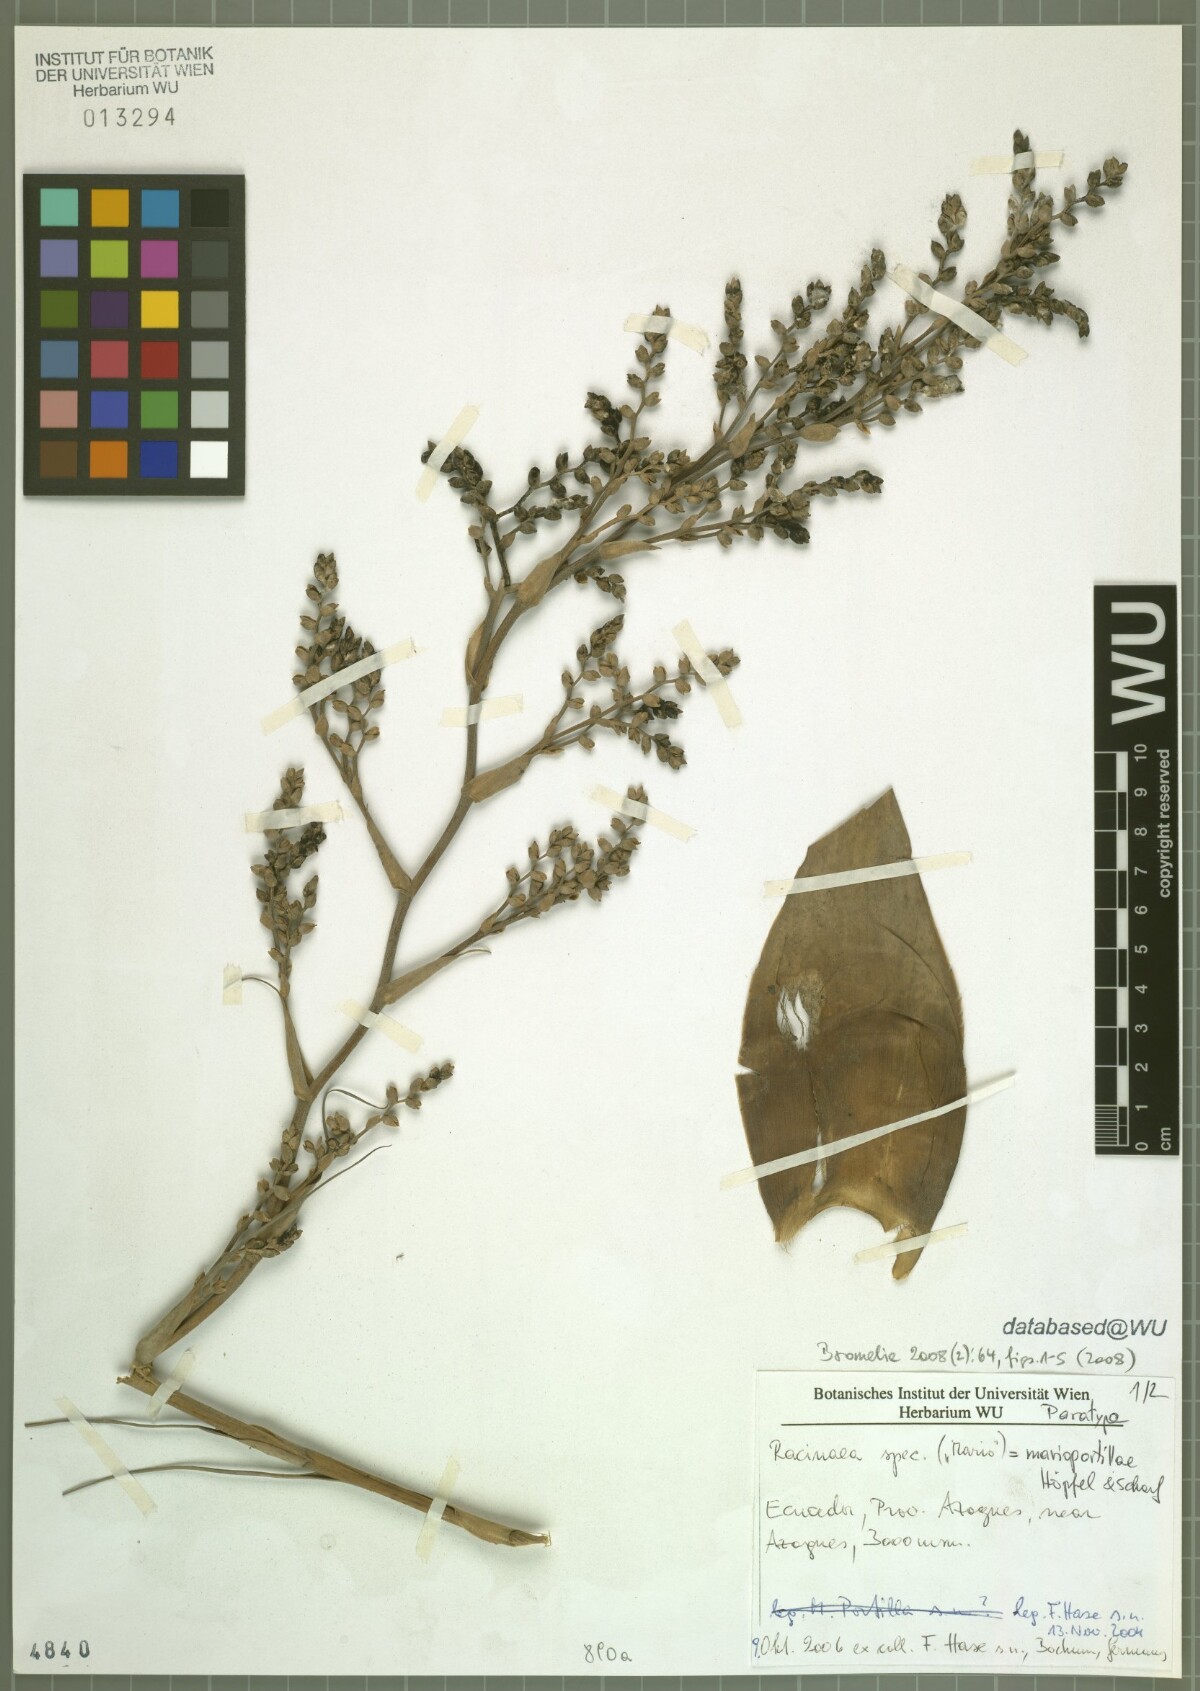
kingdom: Plantae
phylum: Tracheophyta
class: Liliopsida
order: Poales
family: Bromeliaceae
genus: Racinaea
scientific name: Racinaea marioportillae
